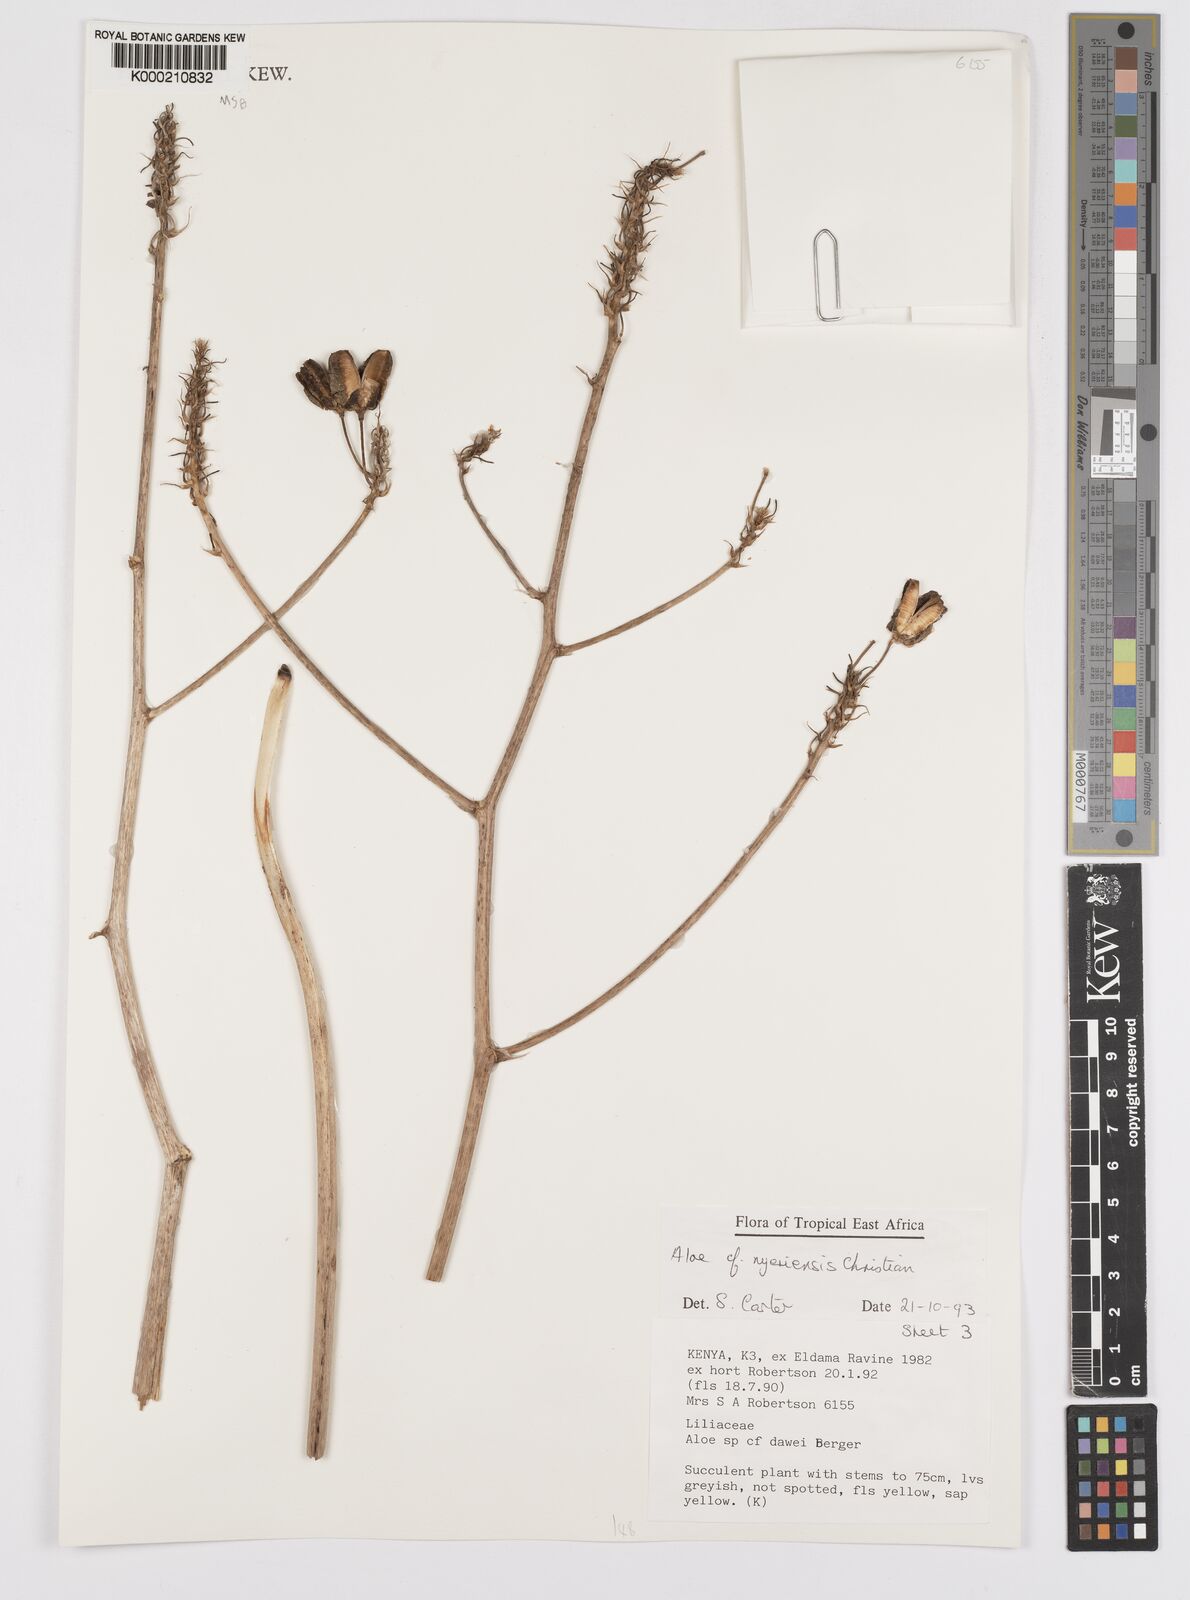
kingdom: Plantae
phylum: Tracheophyta
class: Liliopsida
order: Asparagales
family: Asphodelaceae
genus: Aloe
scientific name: Aloe nyeriensis
